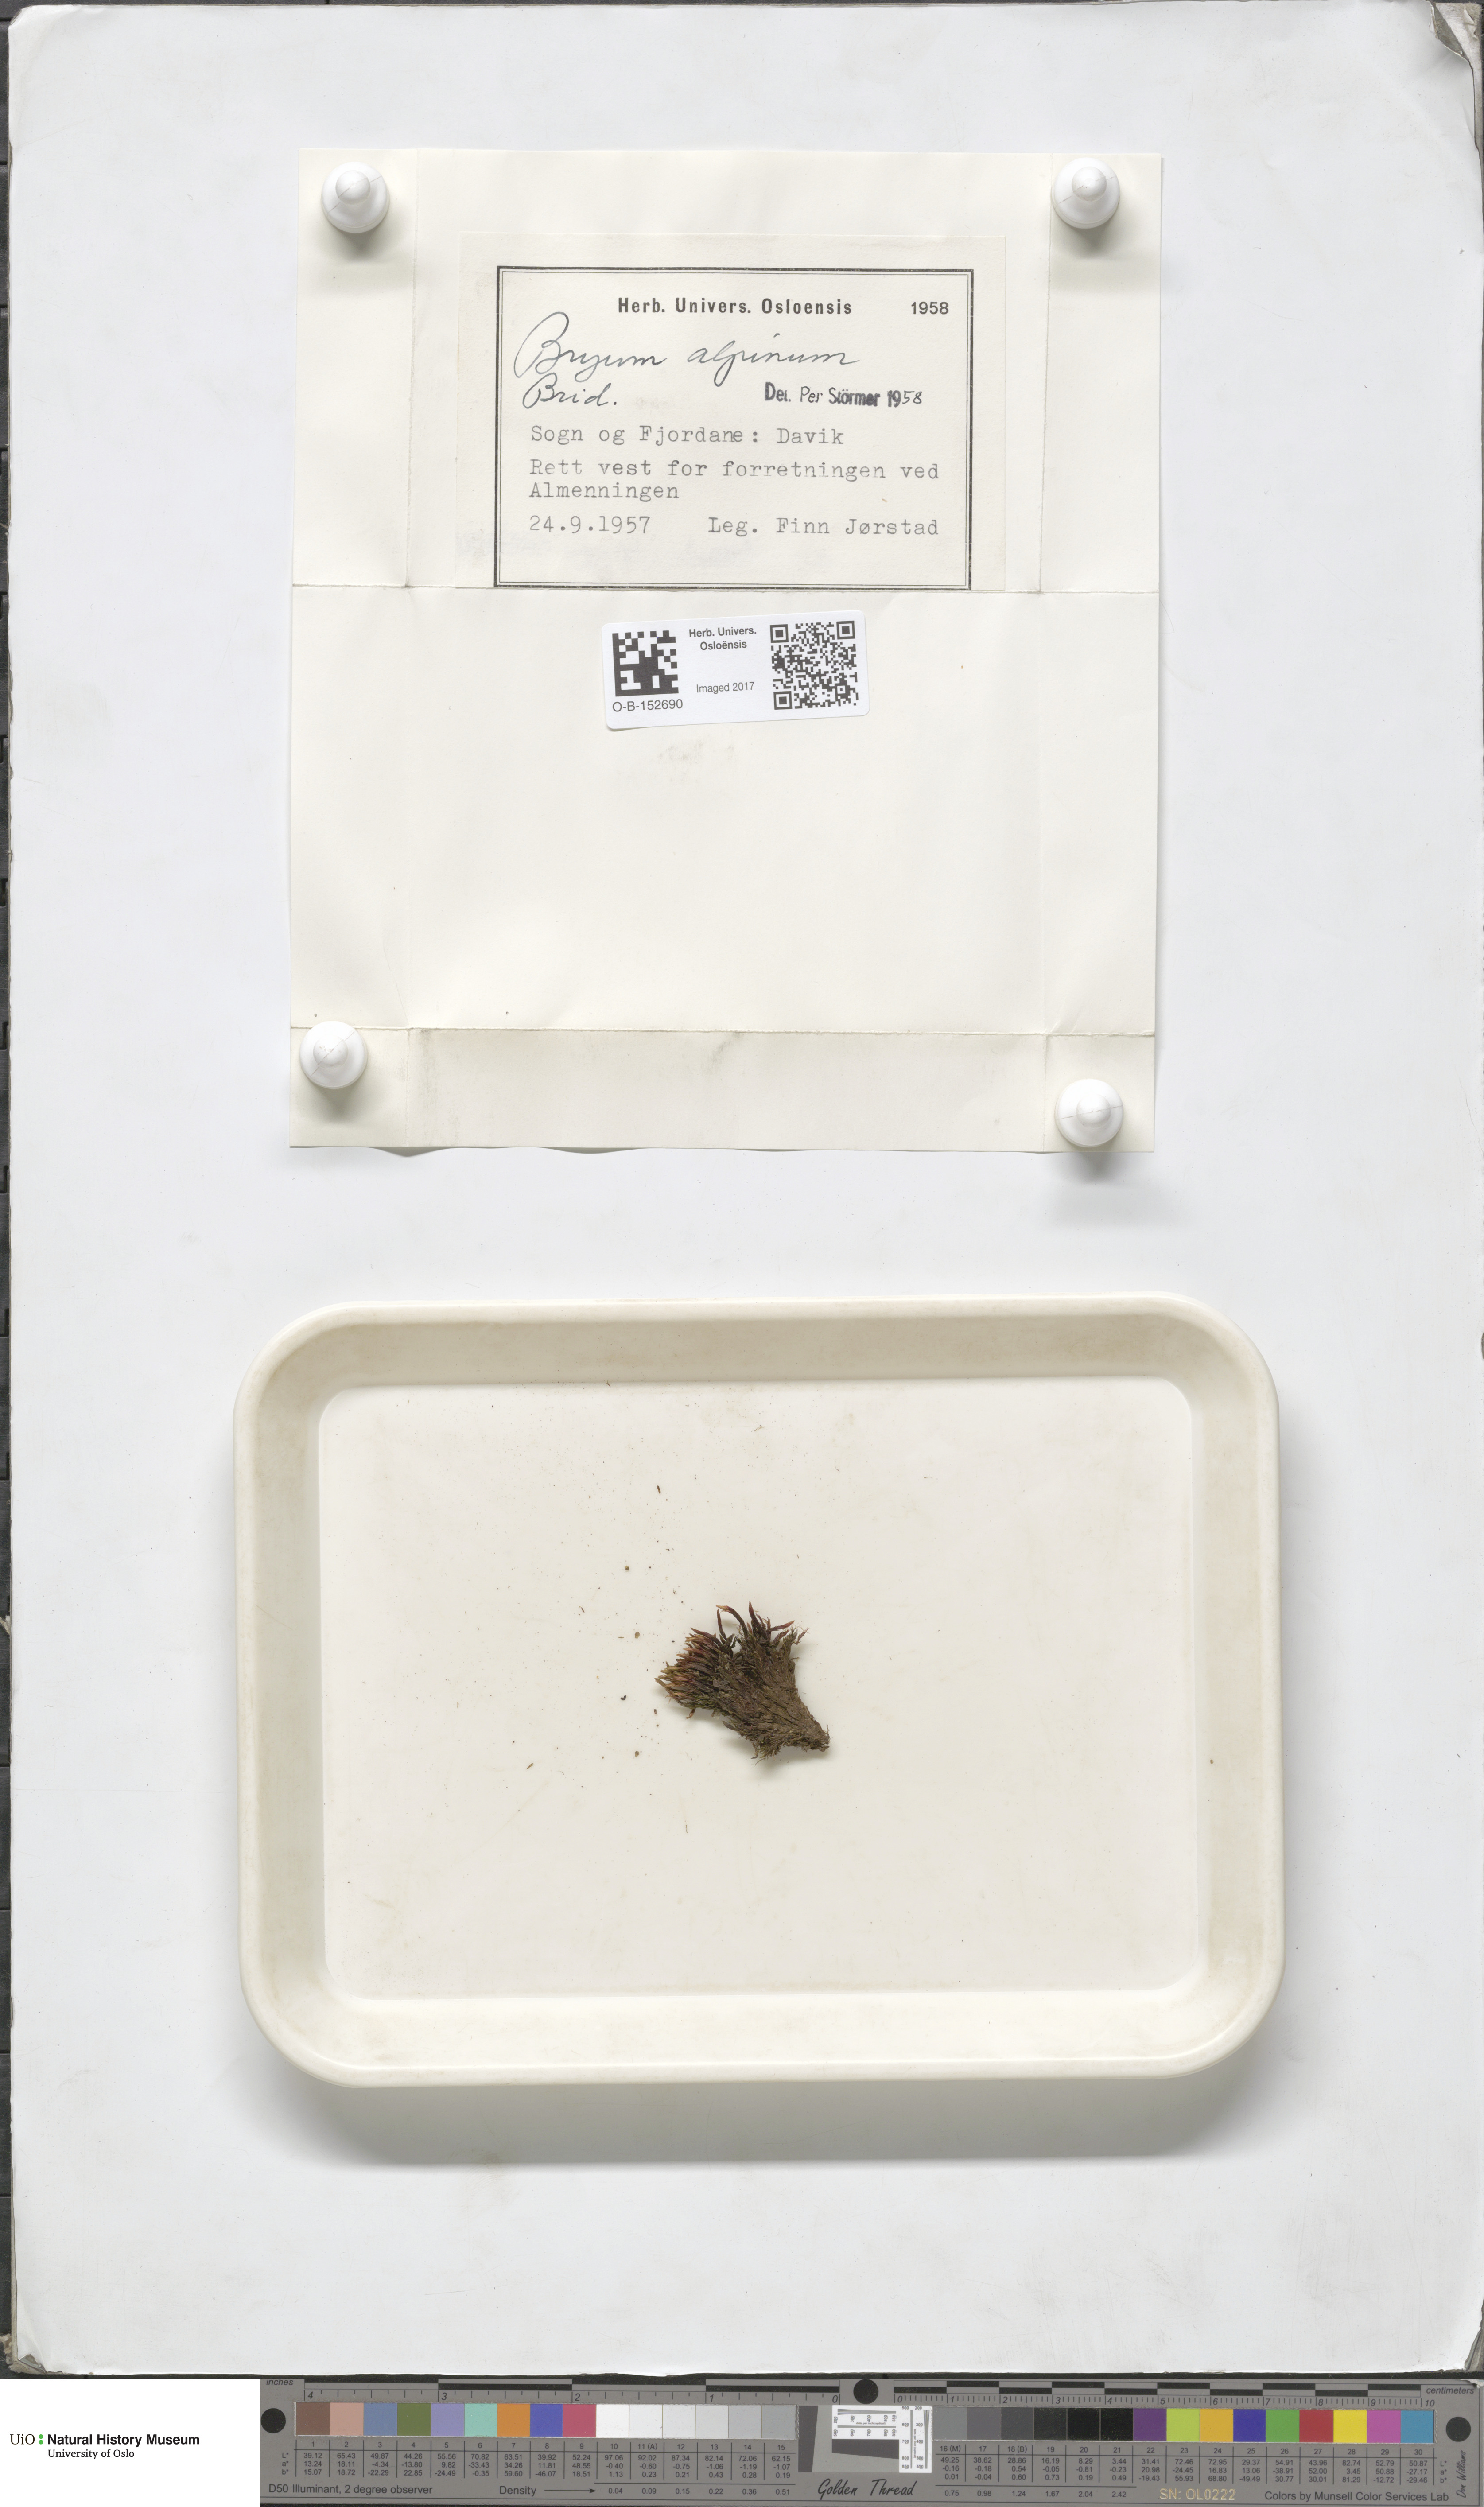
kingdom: Plantae
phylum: Bryophyta
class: Bryopsida
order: Bryales
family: Bryaceae
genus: Imbribryum
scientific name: Imbribryum alpinum
